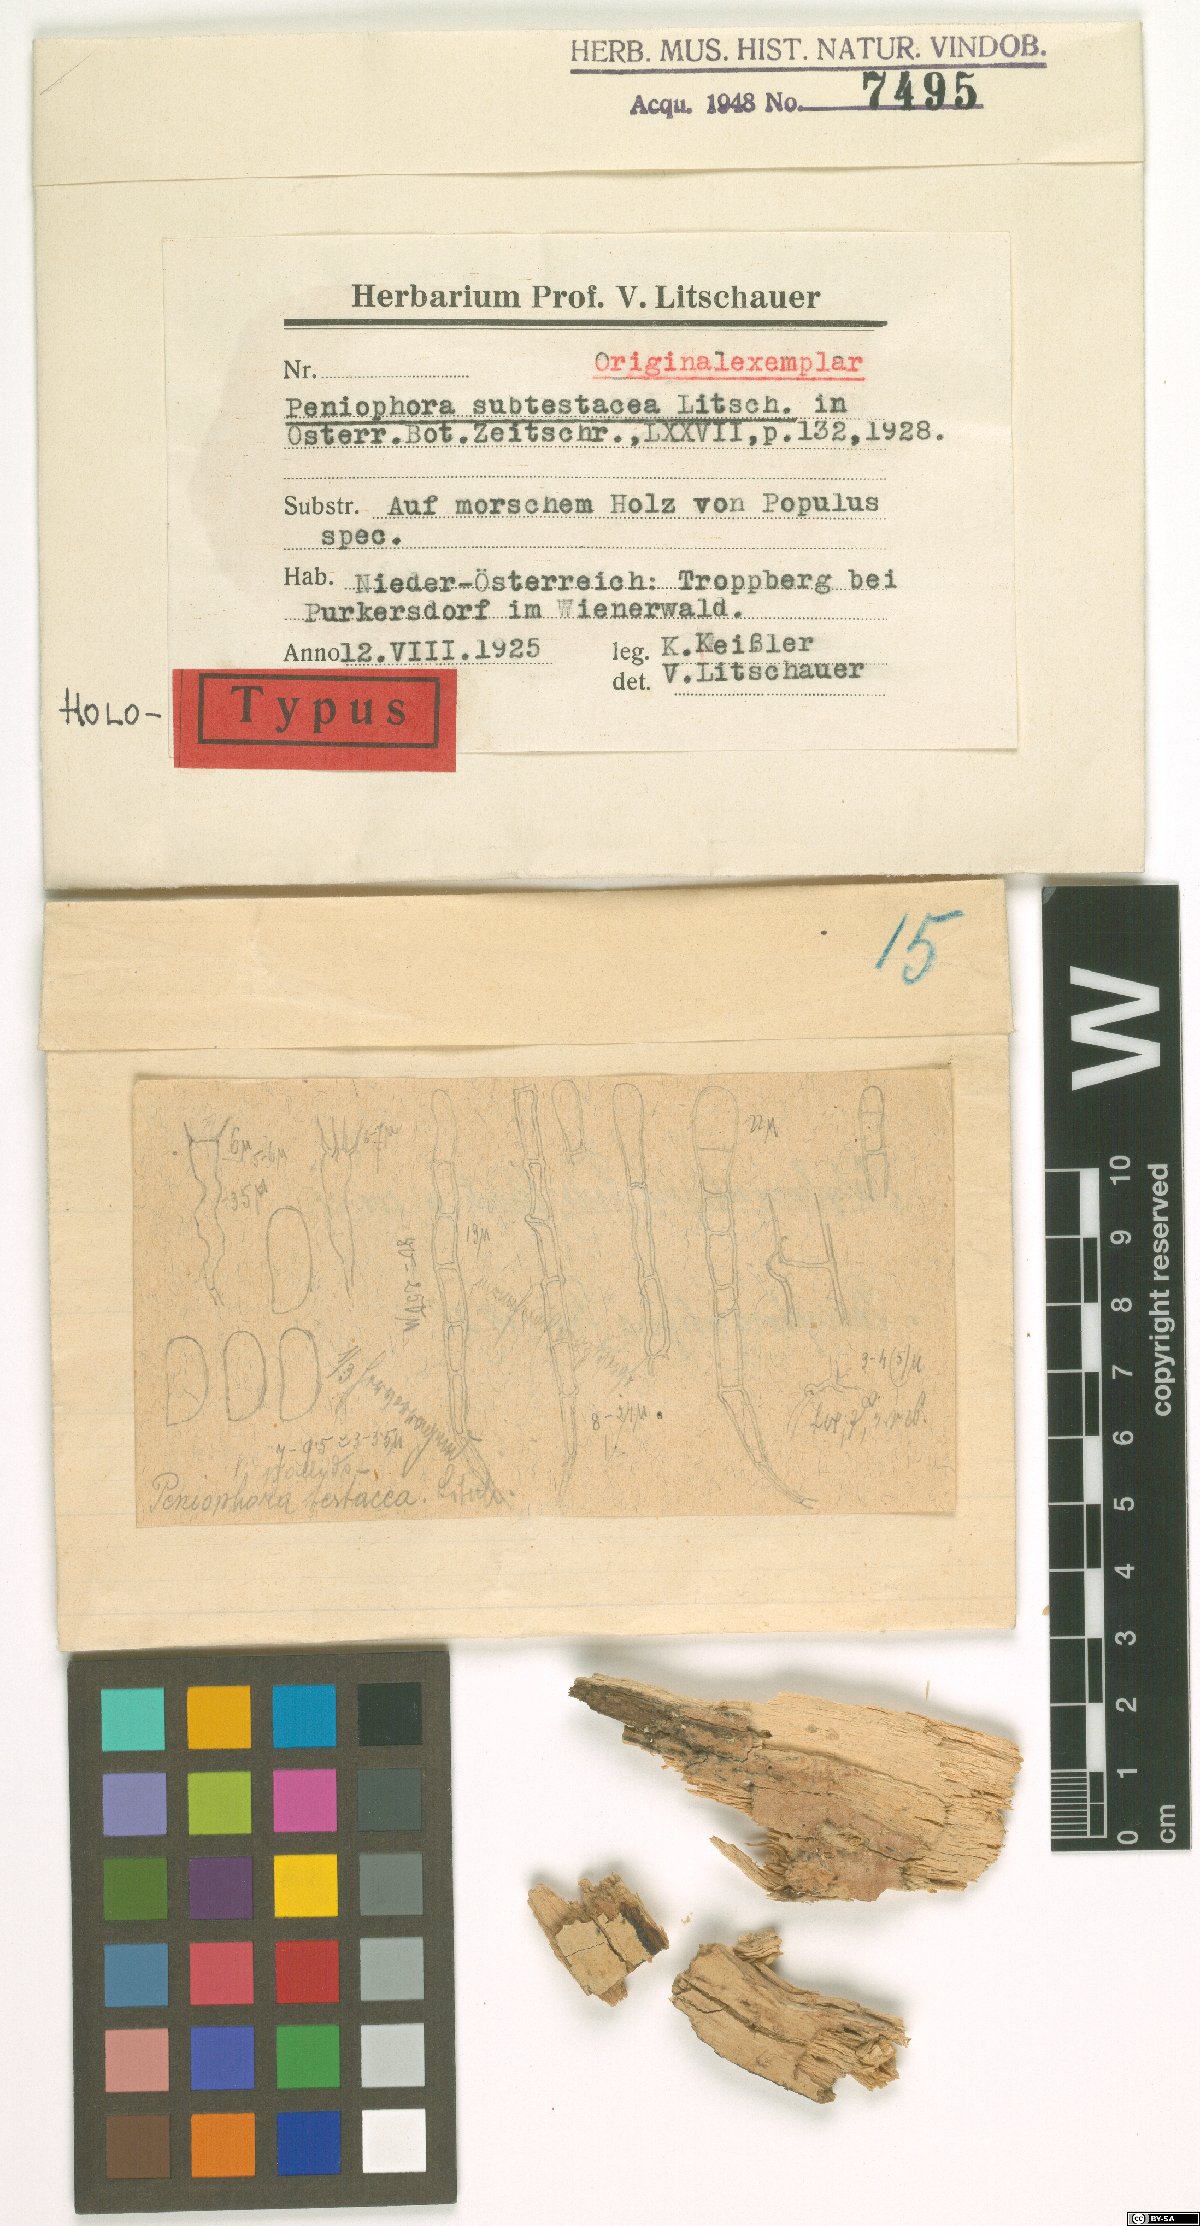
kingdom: Fungi
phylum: Basidiomycota
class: Agaricomycetes
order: Polyporales
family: Hyphodermataceae
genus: Hyphoderma
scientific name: Hyphoderma setigerum
